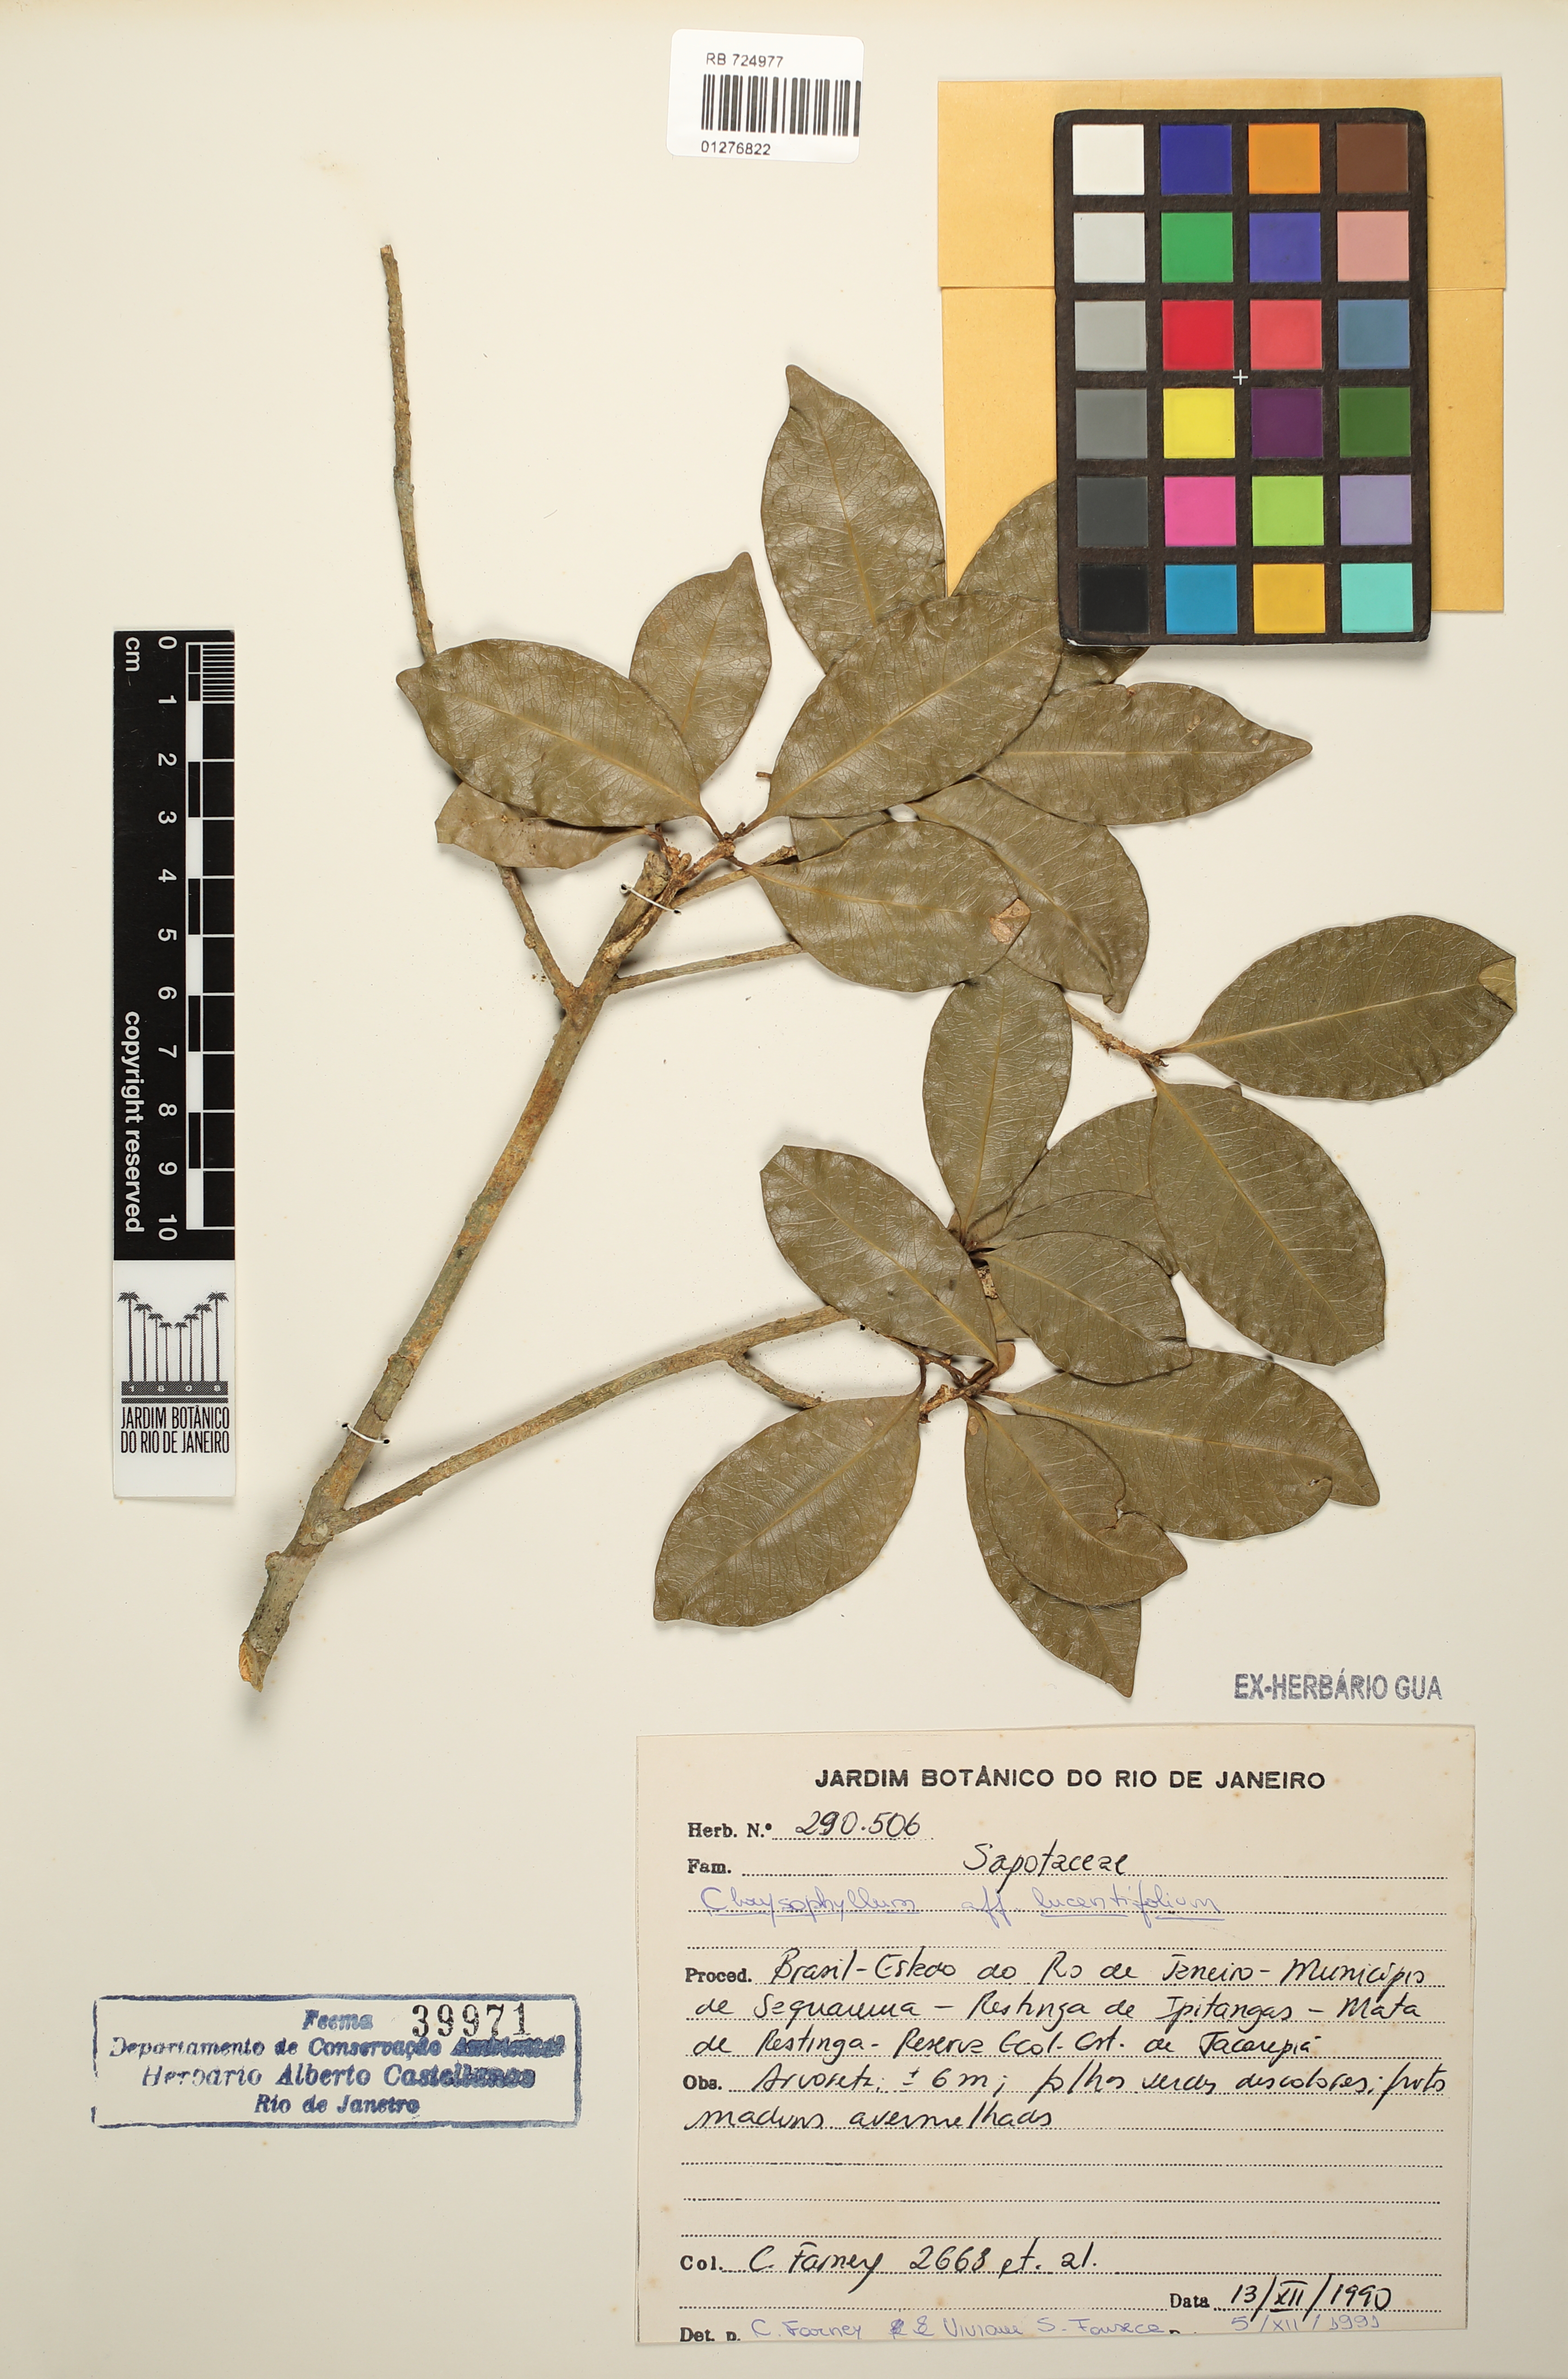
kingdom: Plantae
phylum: Tracheophyta
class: Magnoliopsida
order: Ericales
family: Sapotaceae
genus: Chrysophyllum
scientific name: Chrysophyllum lucentifolium
